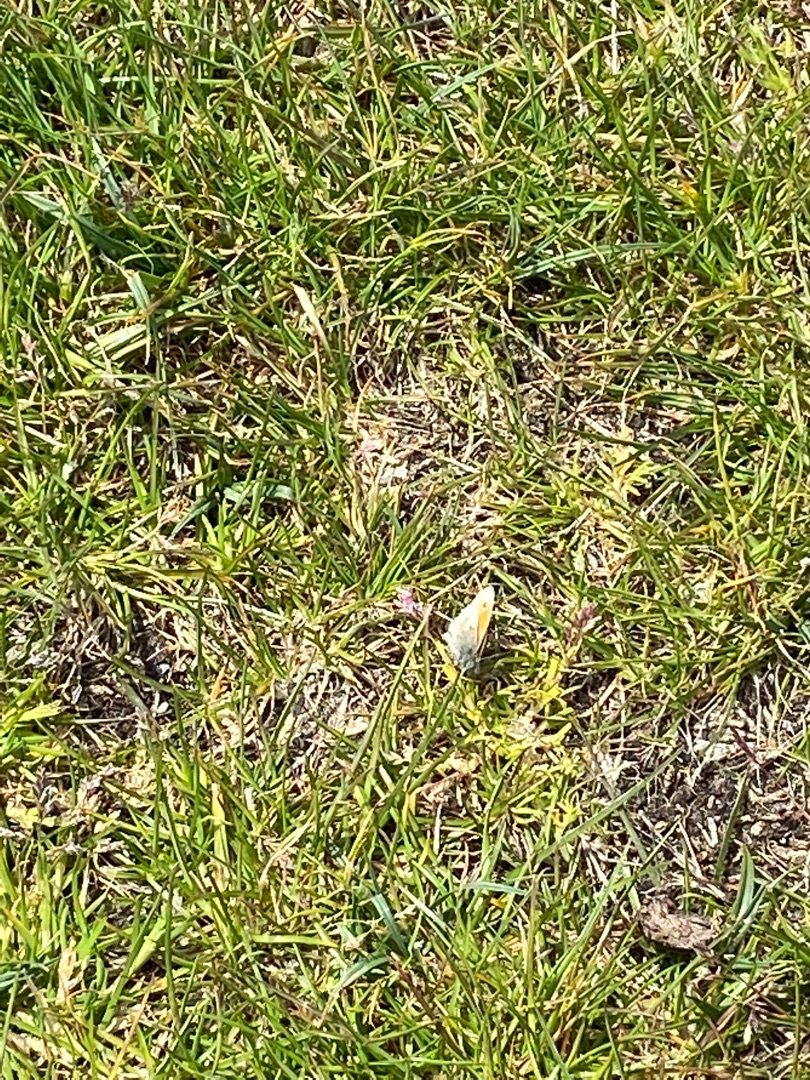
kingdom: Animalia
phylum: Arthropoda
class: Insecta
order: Lepidoptera
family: Nymphalidae
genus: Coenonympha
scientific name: Coenonympha pamphilus
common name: Okkergul randøje
